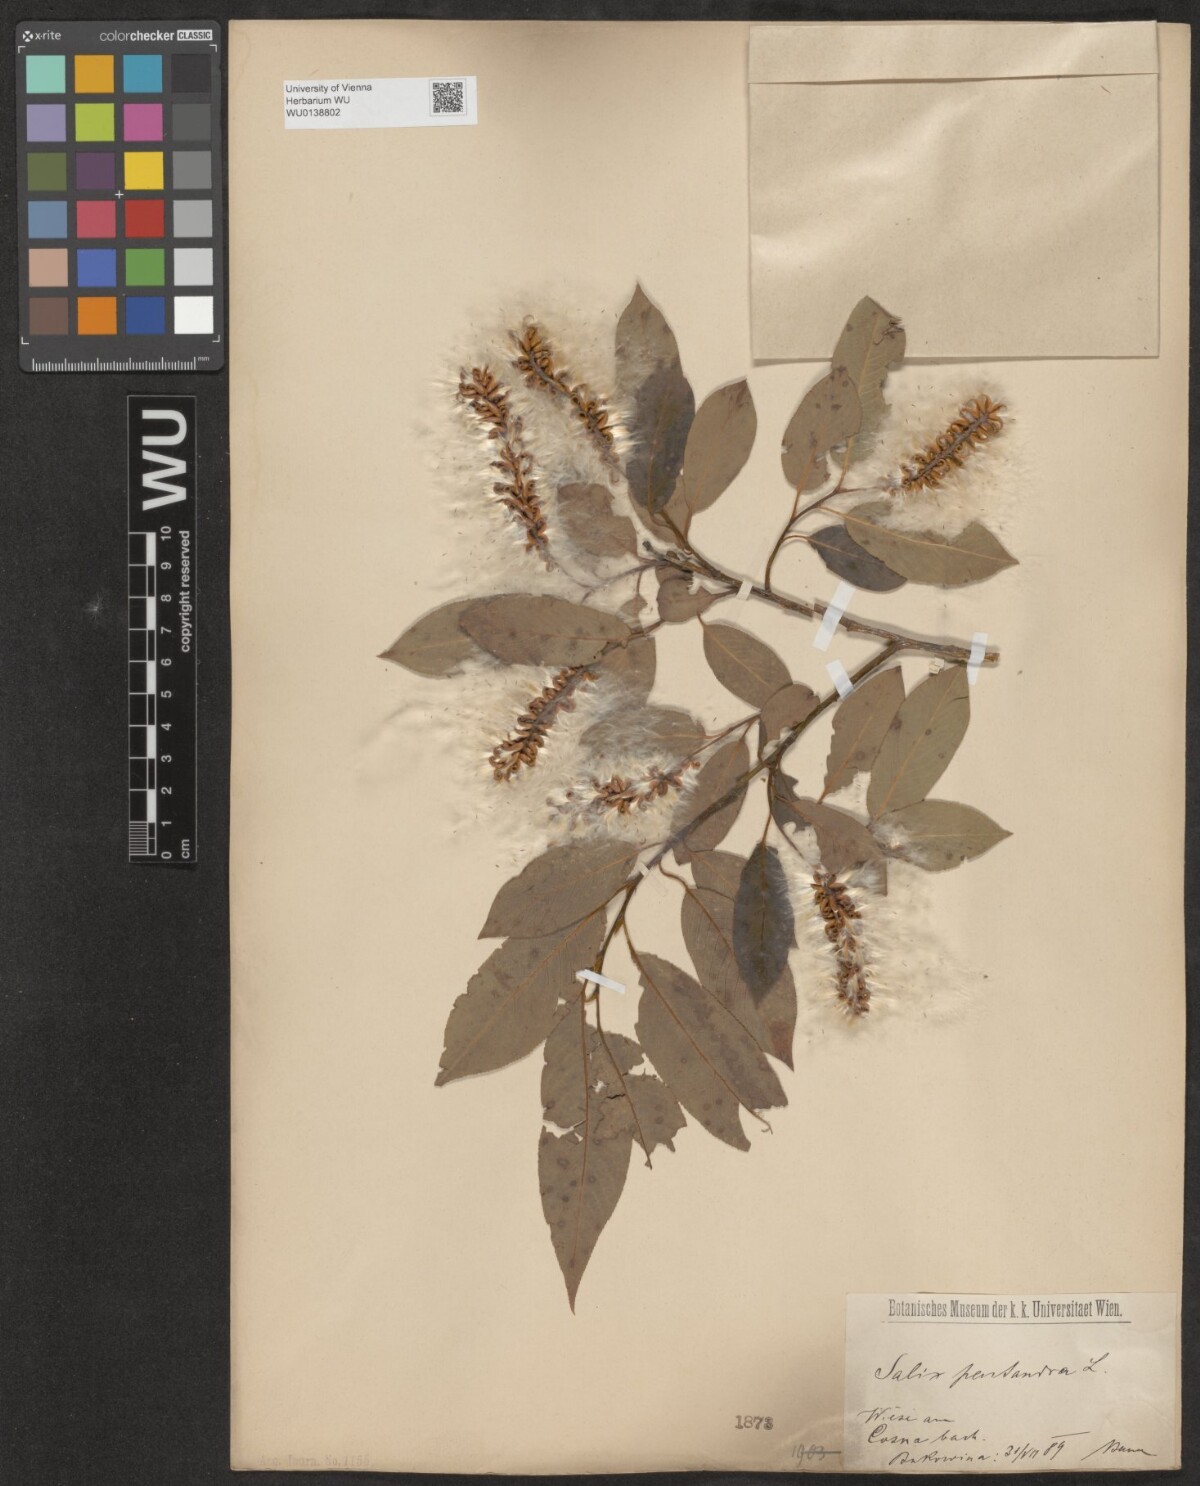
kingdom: Plantae
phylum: Tracheophyta
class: Magnoliopsida
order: Malpighiales
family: Salicaceae
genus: Salix
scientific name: Salix pentandra
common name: Bay willow
